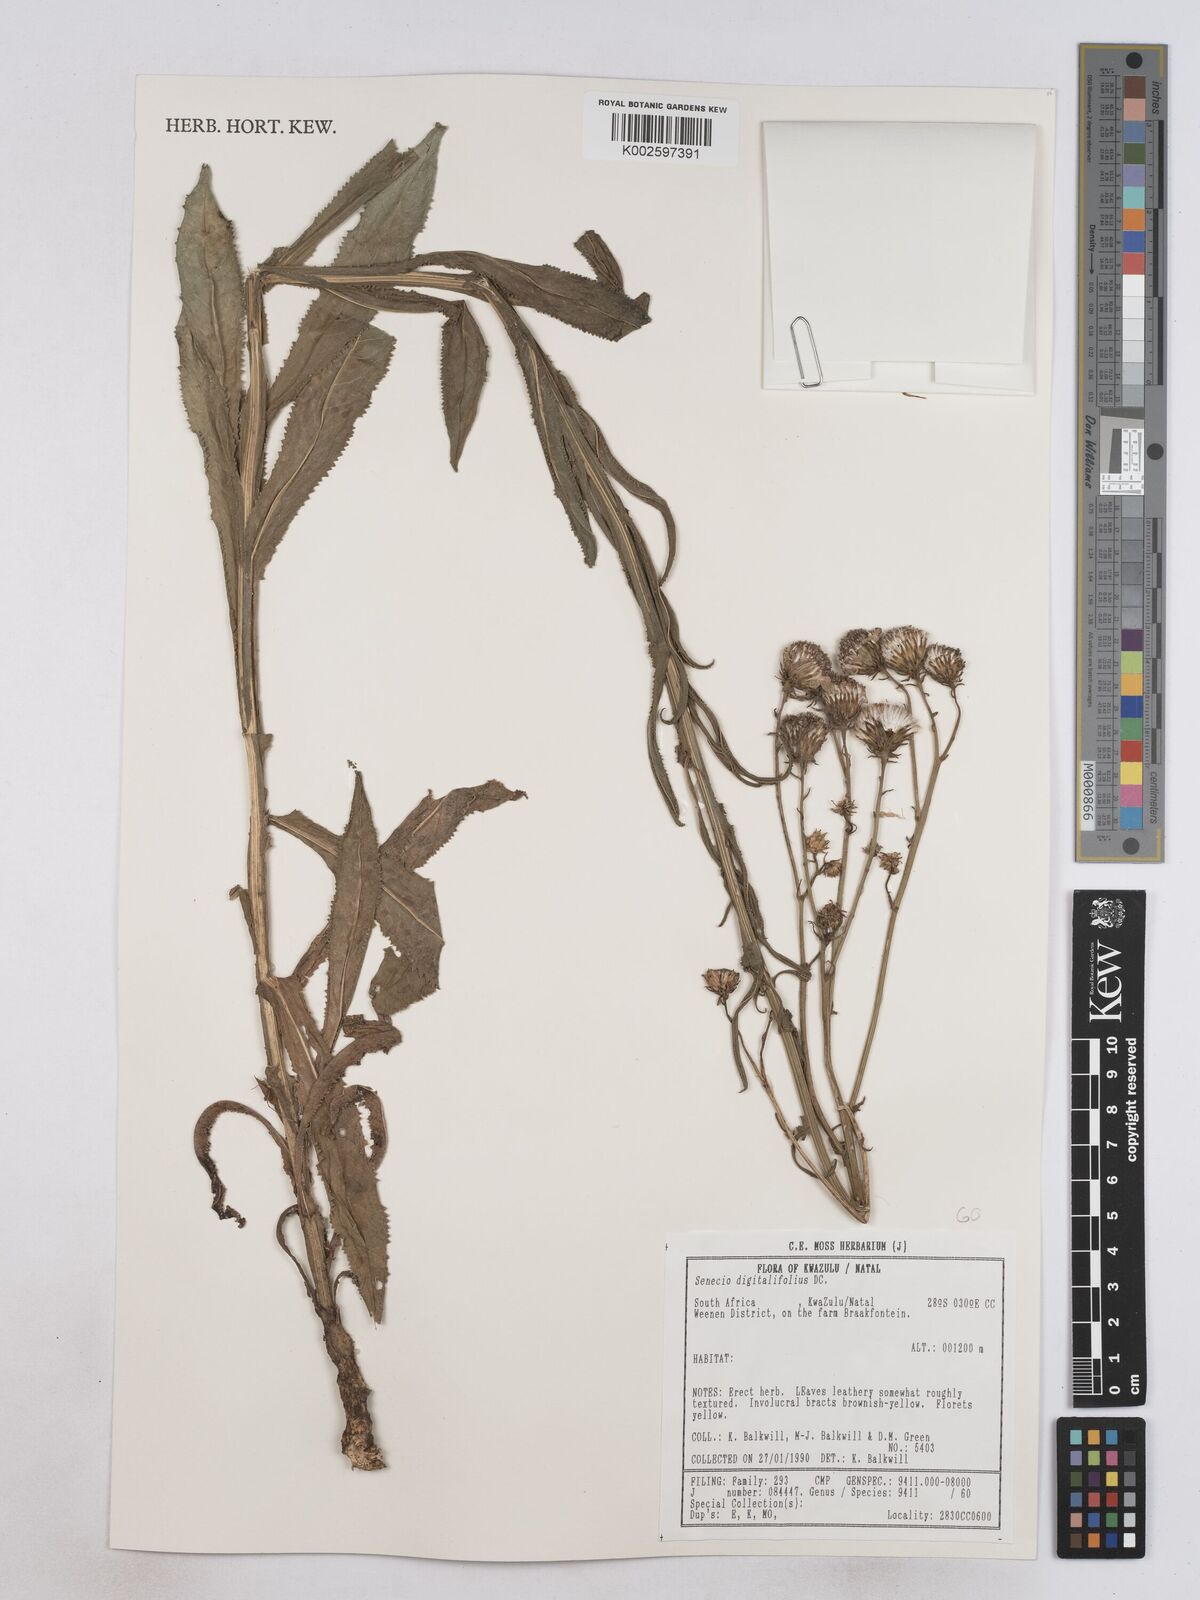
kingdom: Plantae
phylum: Tracheophyta
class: Magnoliopsida
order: Asterales
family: Asteraceae
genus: Senecio
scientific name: Senecio digitalifolius
